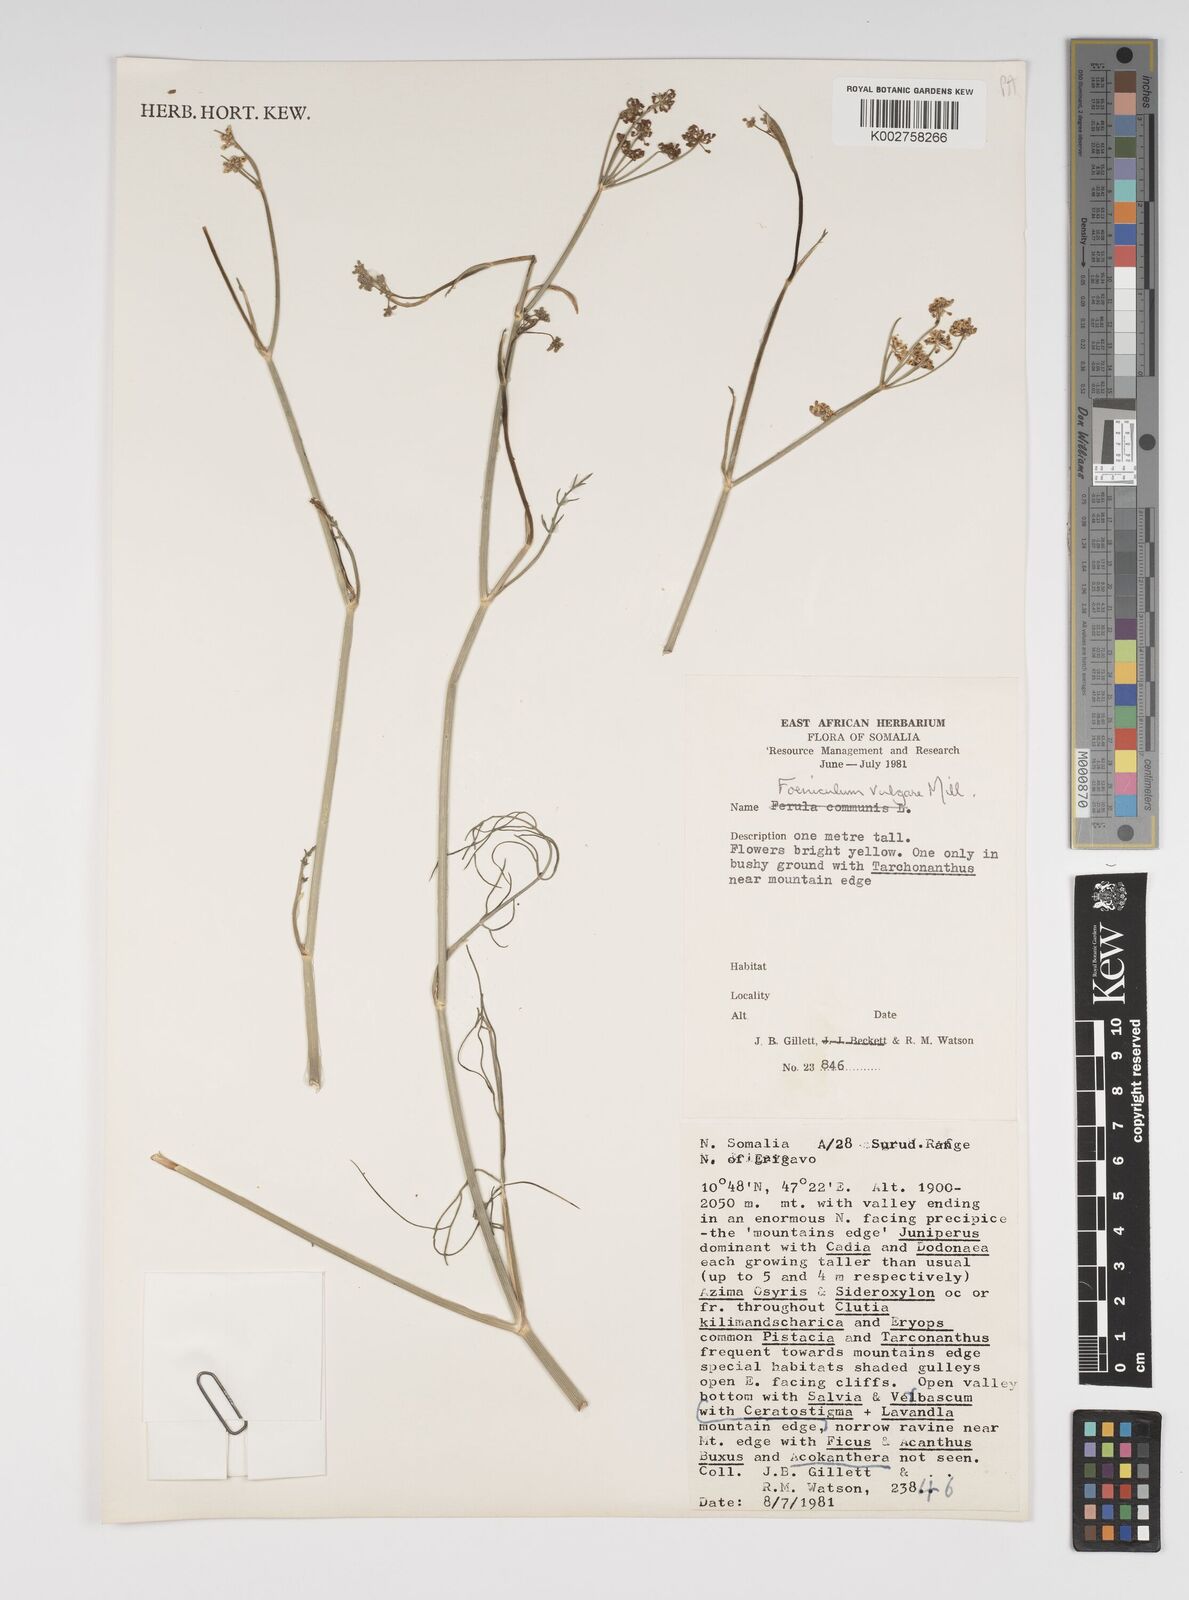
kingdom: Plantae
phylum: Tracheophyta
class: Magnoliopsida
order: Apiales
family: Apiaceae
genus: Foeniculum
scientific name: Foeniculum vulgare
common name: Fennel
